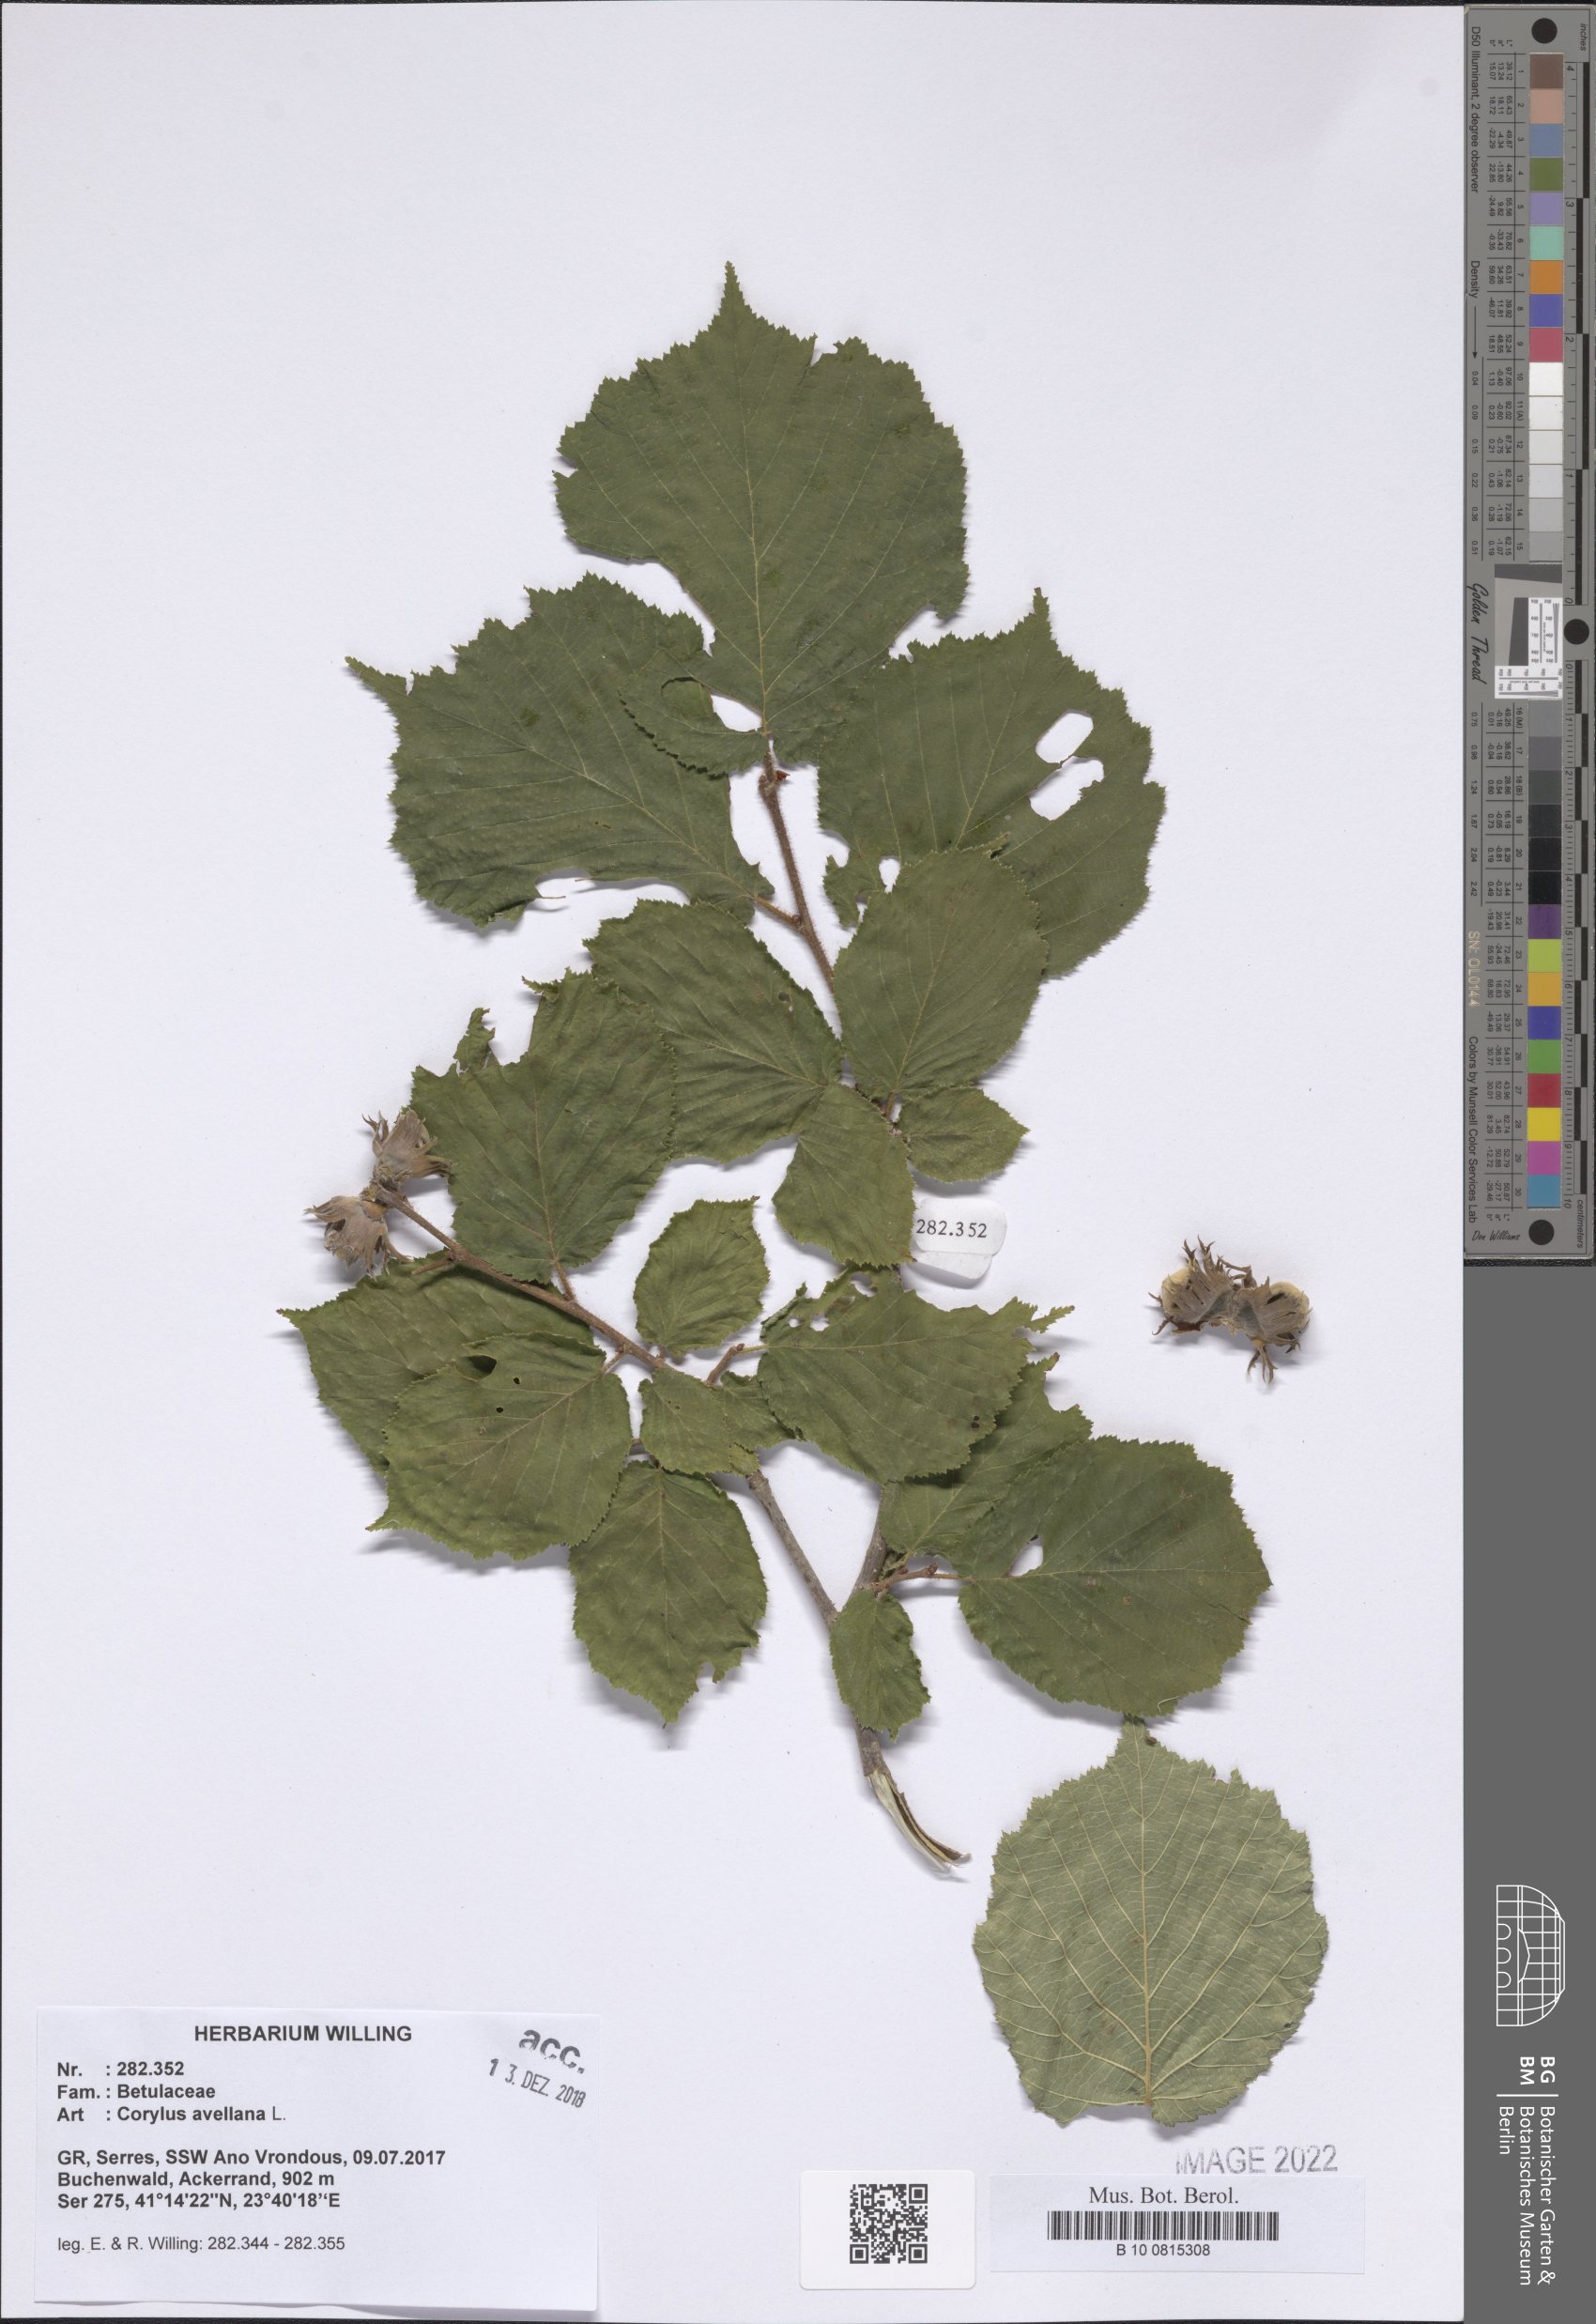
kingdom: Plantae
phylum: Tracheophyta
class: Magnoliopsida
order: Fagales
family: Betulaceae
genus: Corylus
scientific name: Corylus avellana
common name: European hazel
